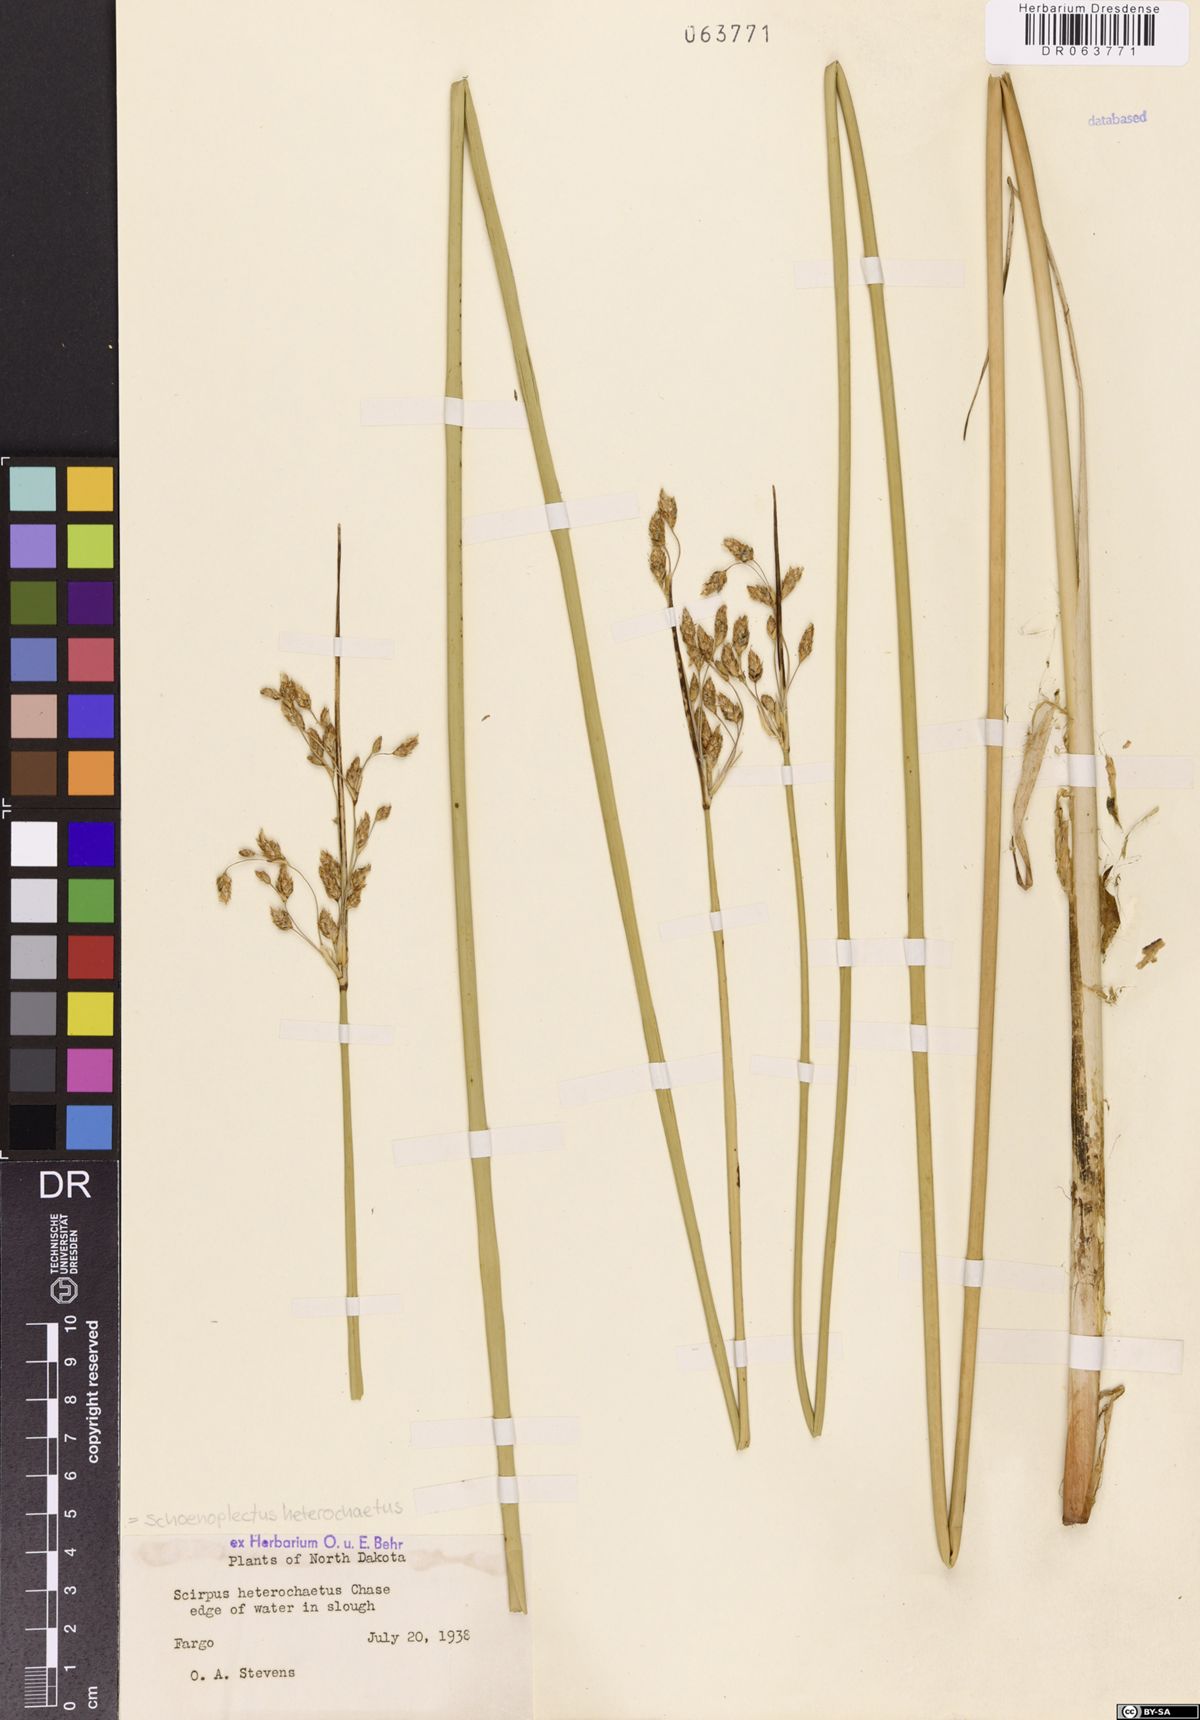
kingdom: Plantae
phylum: Tracheophyta
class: Liliopsida
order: Poales
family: Cyperaceae
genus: Schoenoplectus
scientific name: Schoenoplectus heterochaetus
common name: Pale great bulrush
